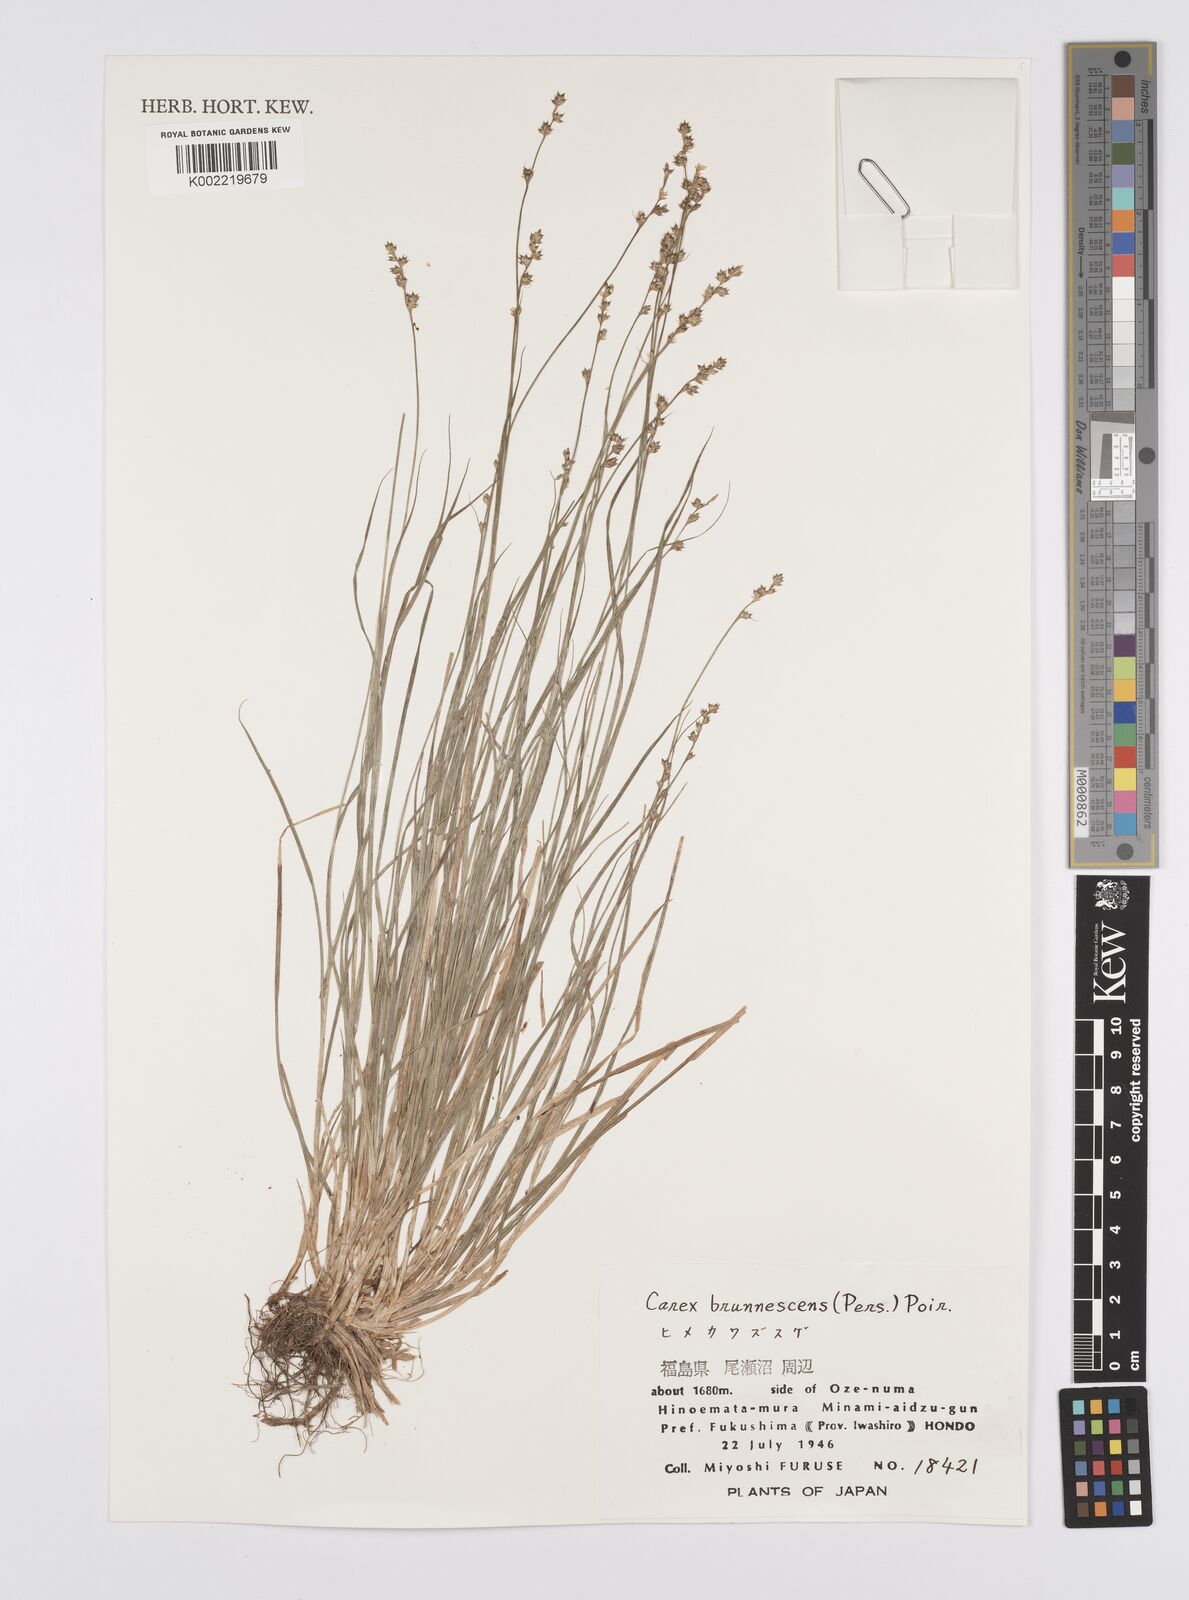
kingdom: Plantae
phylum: Tracheophyta
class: Liliopsida
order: Poales
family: Cyperaceae
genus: Carex
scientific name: Carex brunnescens
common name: Brown sedge
